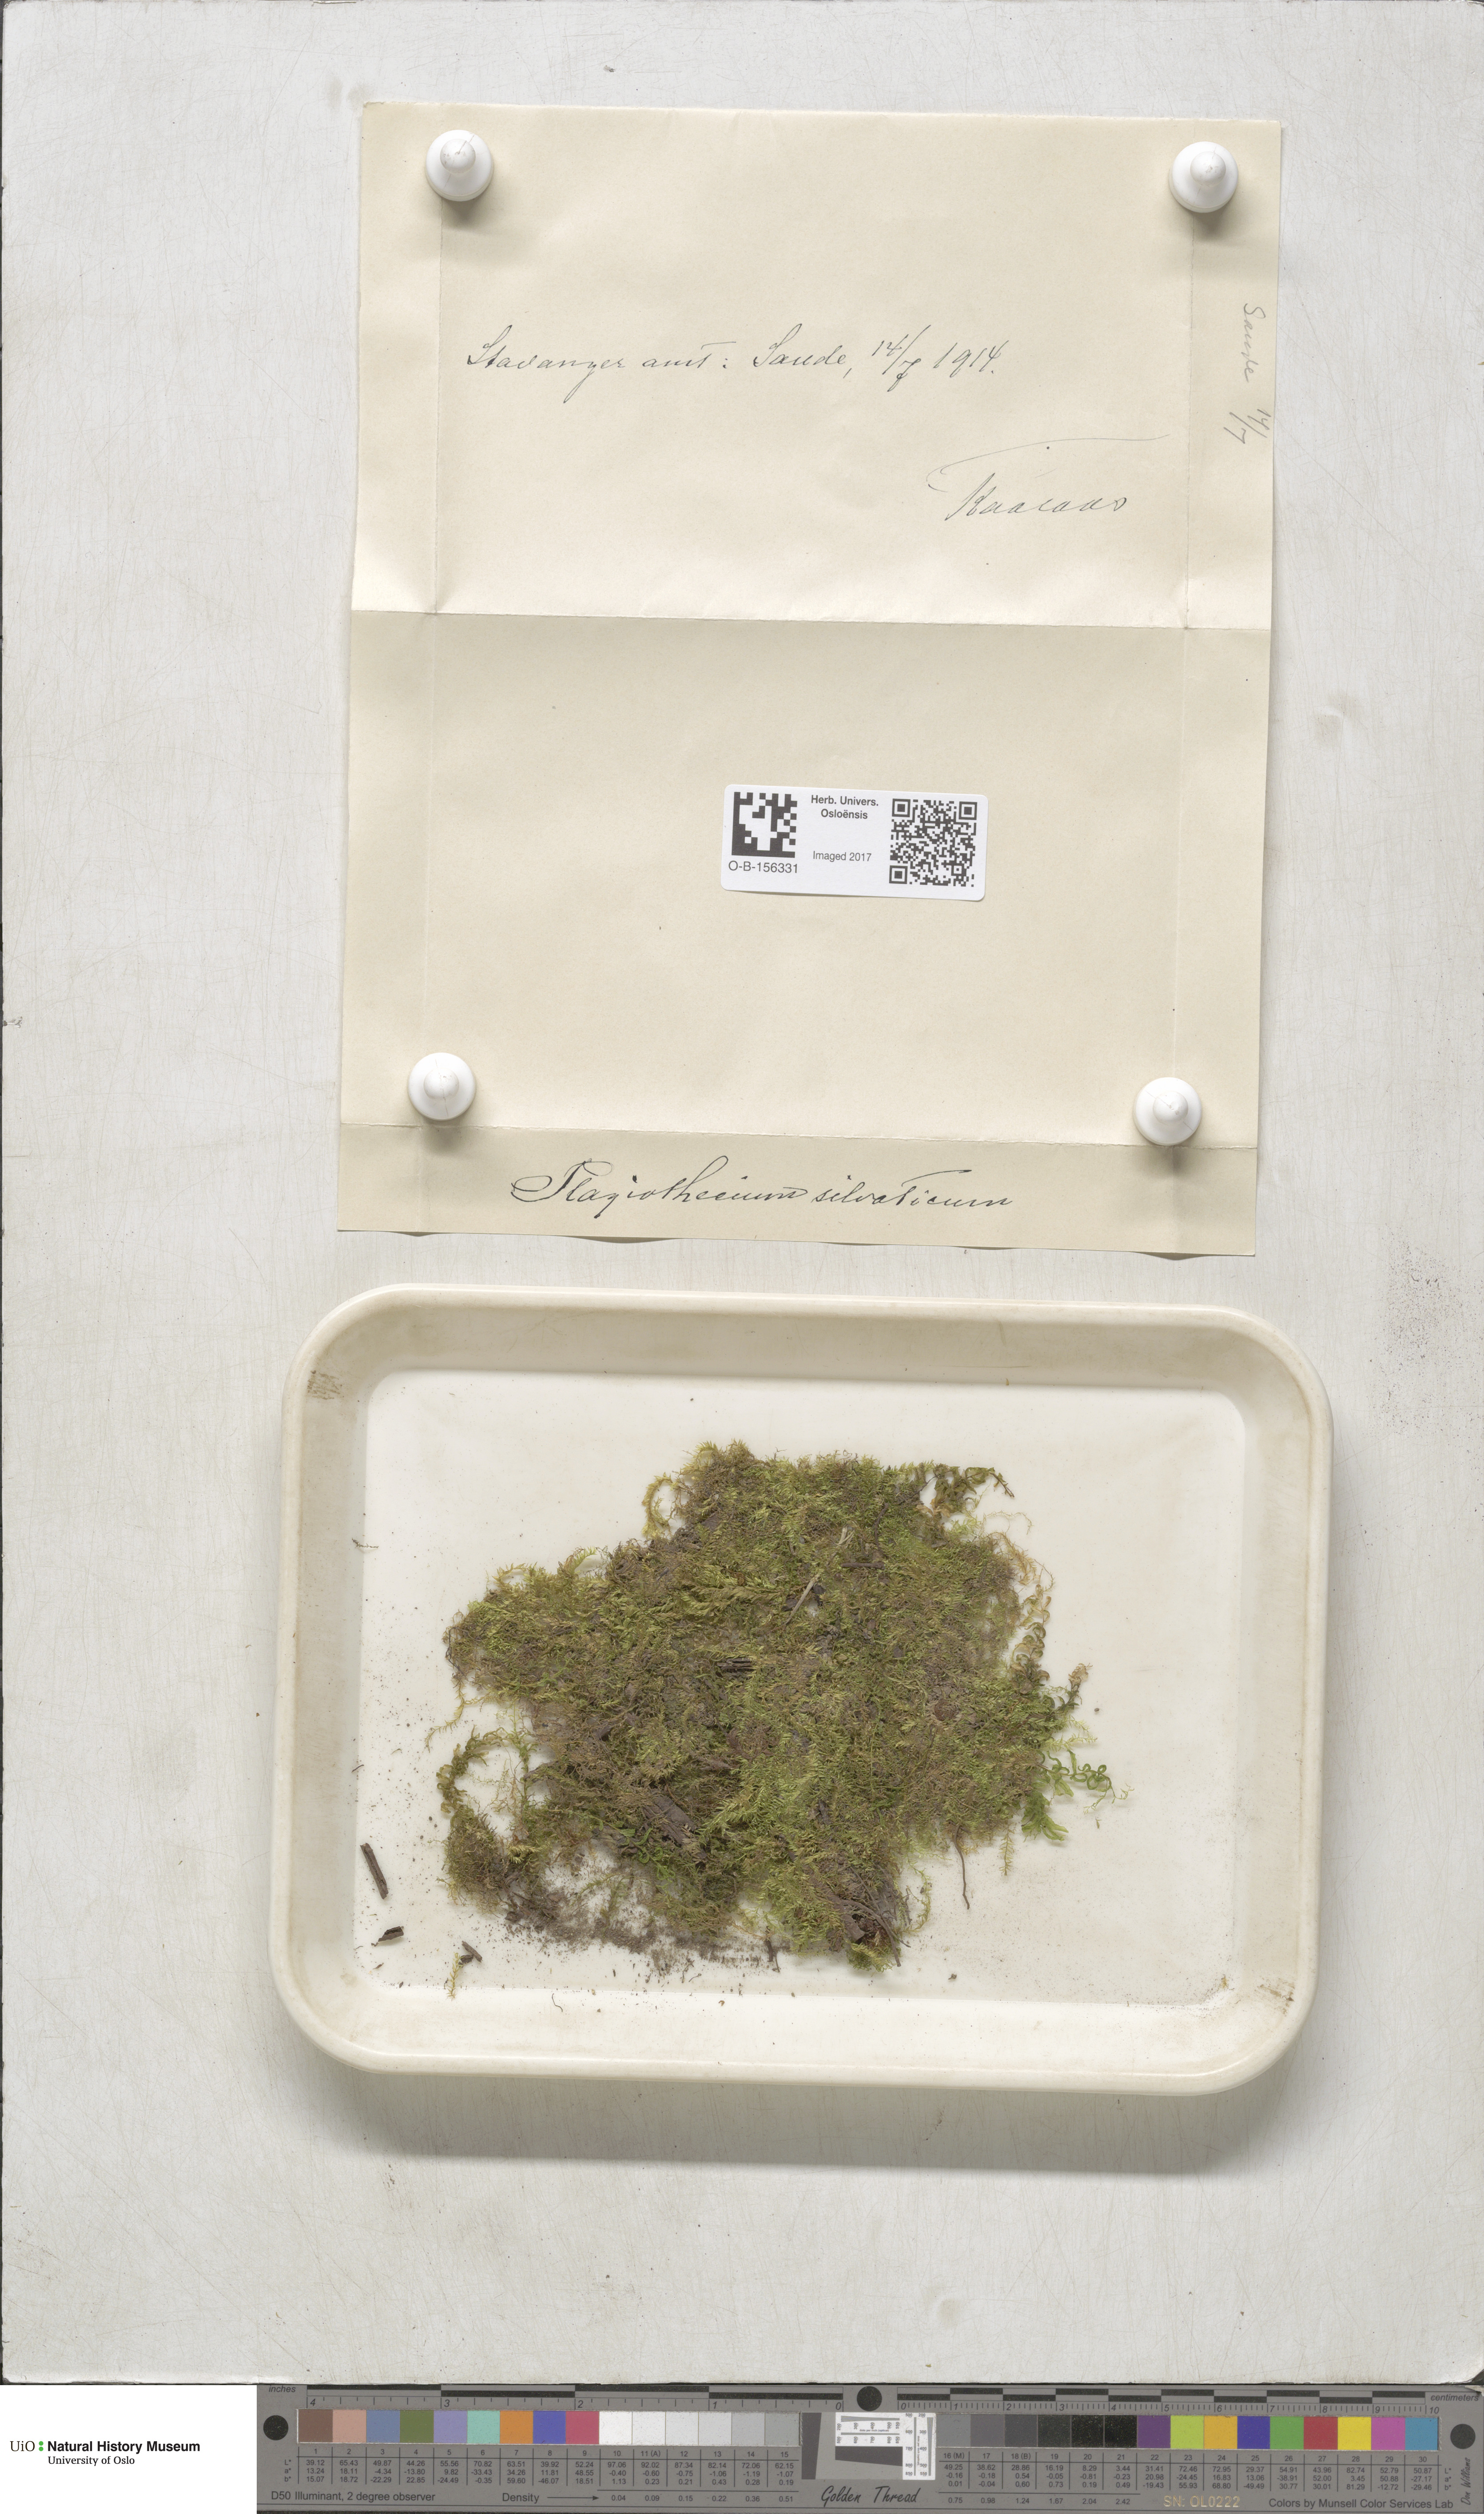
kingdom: Plantae
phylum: Bryophyta
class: Bryopsida
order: Hypnales
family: Plagiotheciaceae
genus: Plagiothecium
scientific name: Plagiothecium nemorale
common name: Woodsy silk-moss
